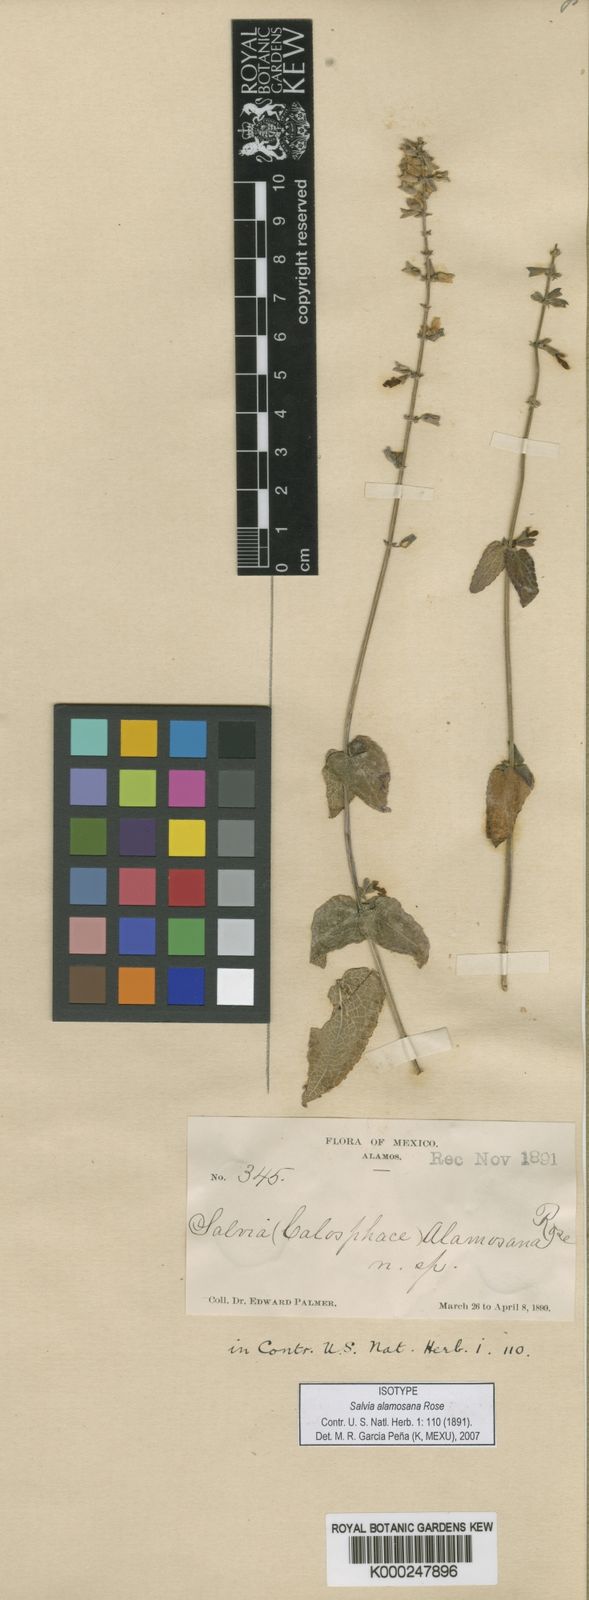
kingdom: Plantae
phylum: Tracheophyta
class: Magnoliopsida
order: Lamiales
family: Lamiaceae
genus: Salvia
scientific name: Salvia alamosana
